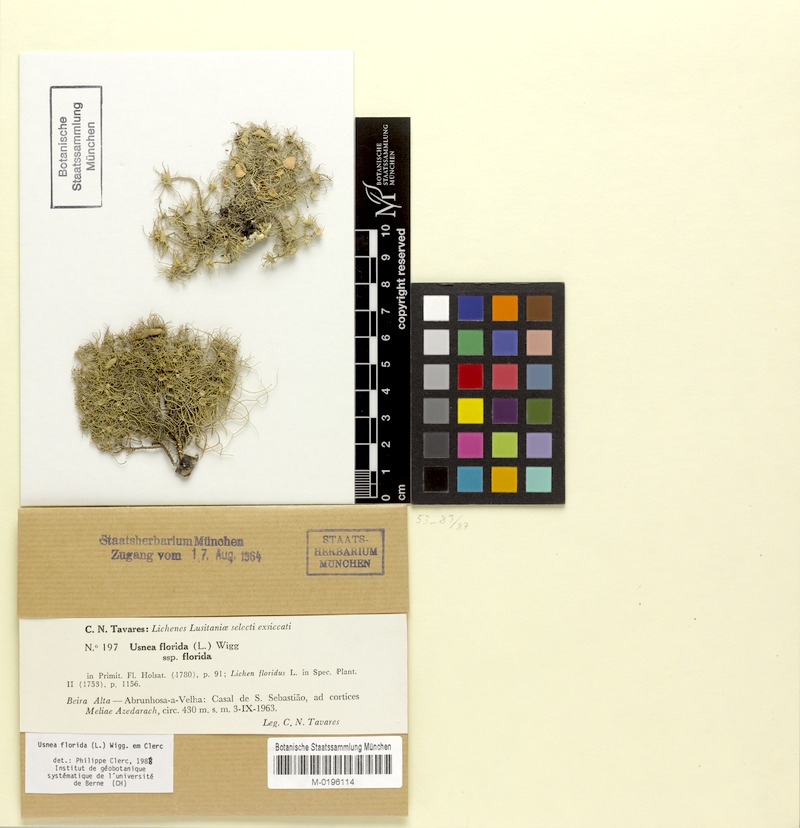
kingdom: Fungi
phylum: Ascomycota
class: Lecanoromycetes
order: Lecanorales
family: Parmeliaceae
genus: Usnea
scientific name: Usnea florida
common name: Witches' whiskers lichen
